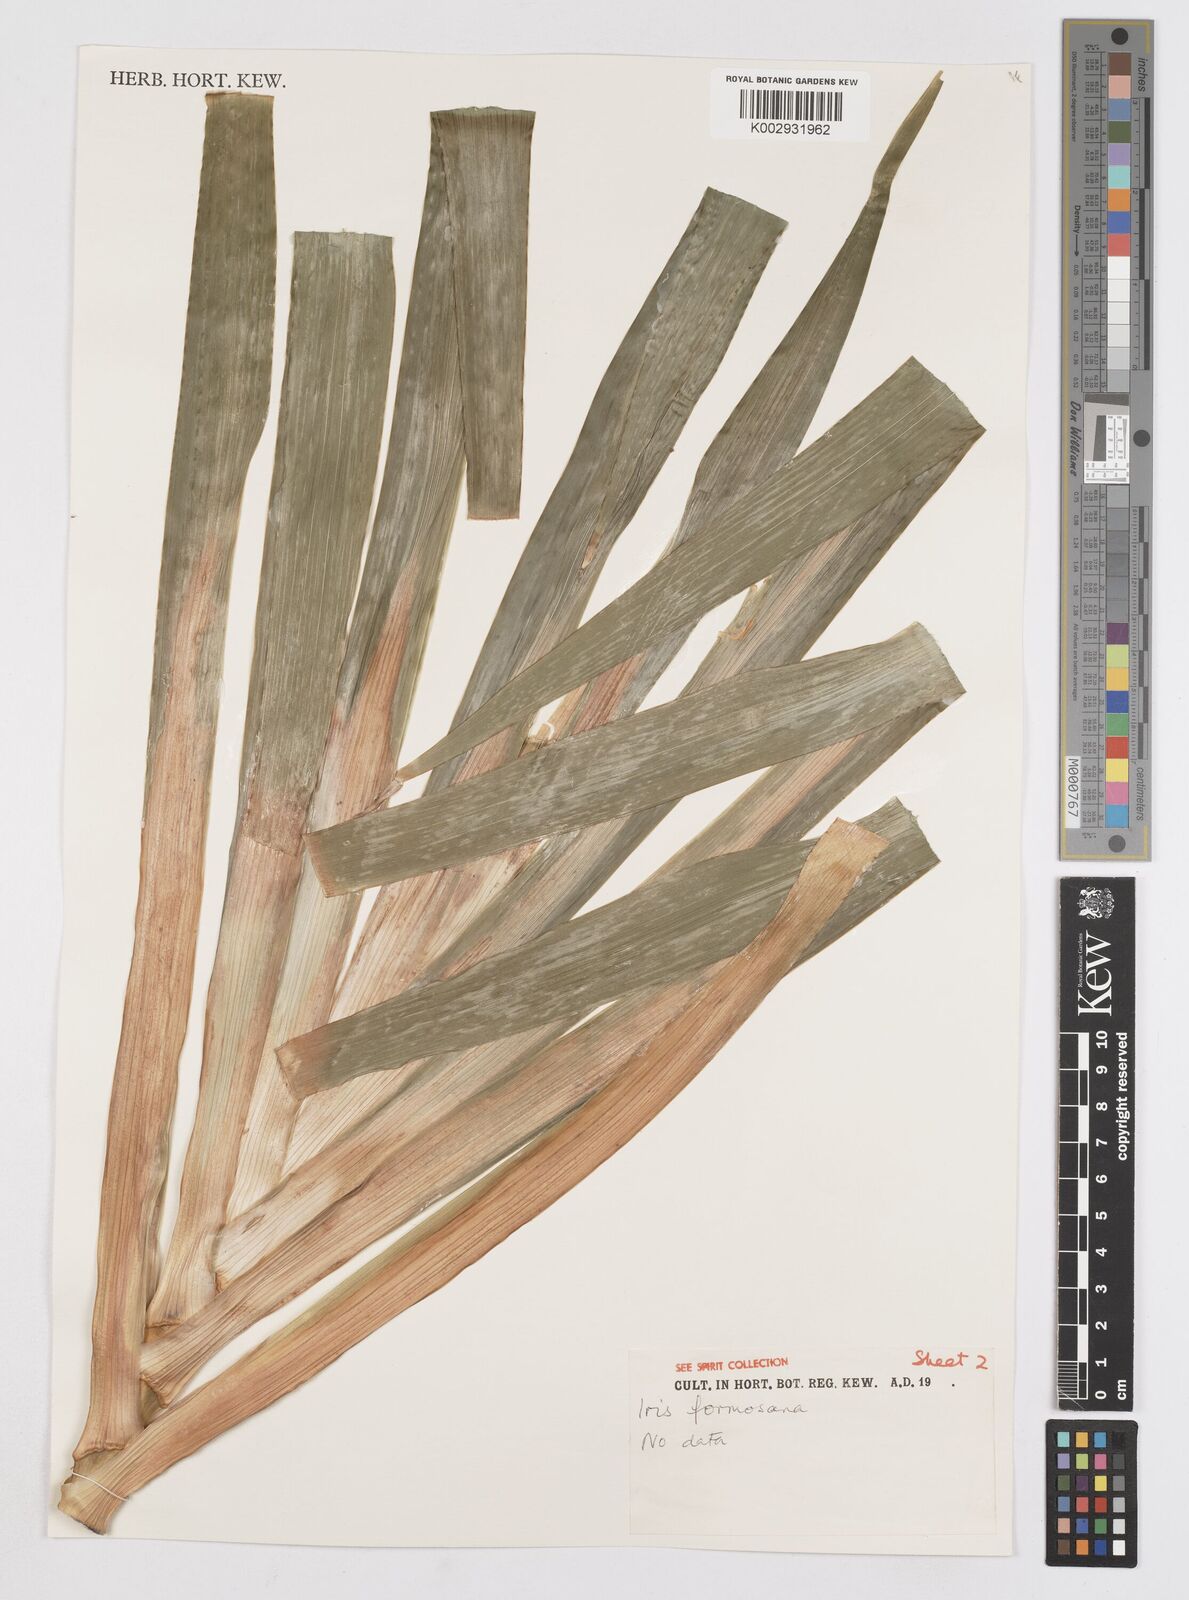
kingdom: Plantae
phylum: Tracheophyta
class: Liliopsida
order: Asparagales
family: Iridaceae
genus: Iris
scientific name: Iris formosana
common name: Taiwan iris
